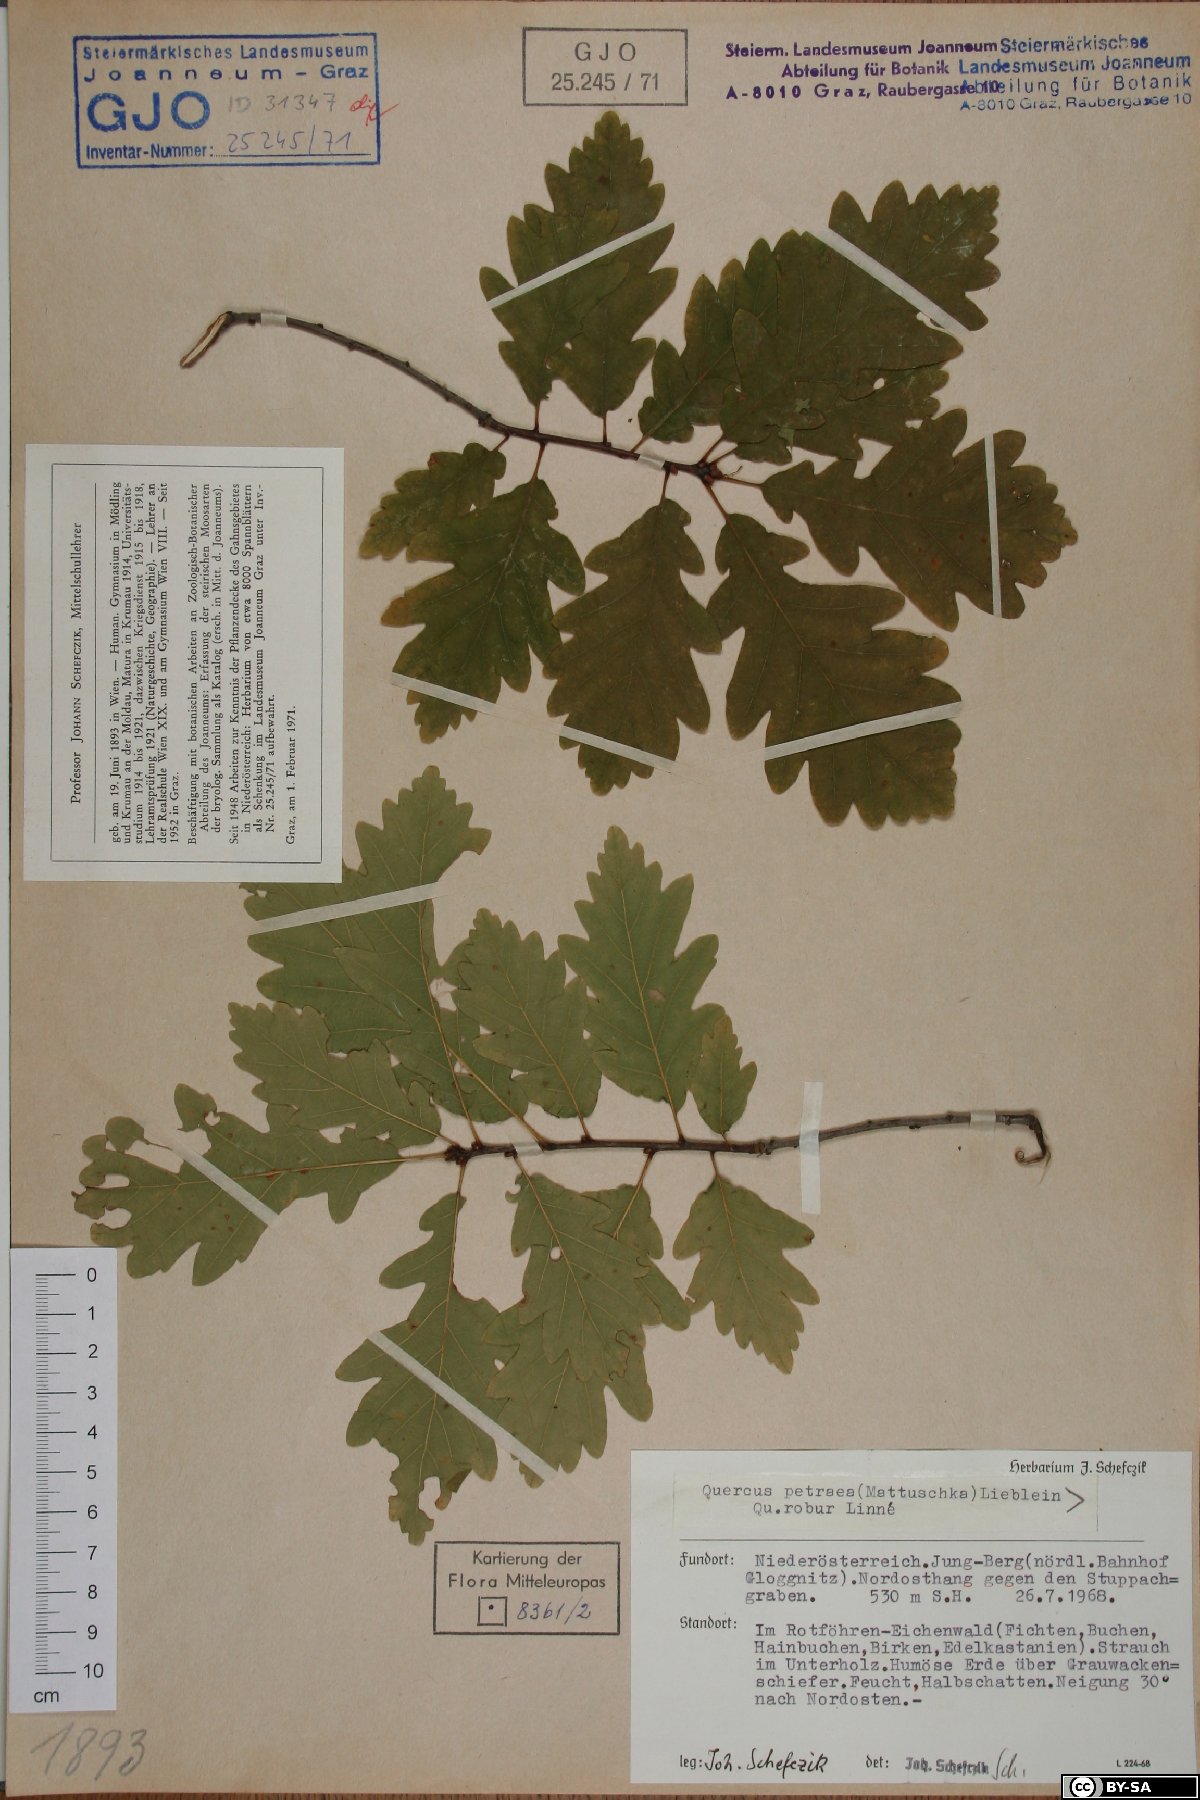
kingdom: Plantae
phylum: Tracheophyta
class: Magnoliopsida
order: Fagales
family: Fagaceae
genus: Quercus
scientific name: Quercus petraea
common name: Sessile oak
